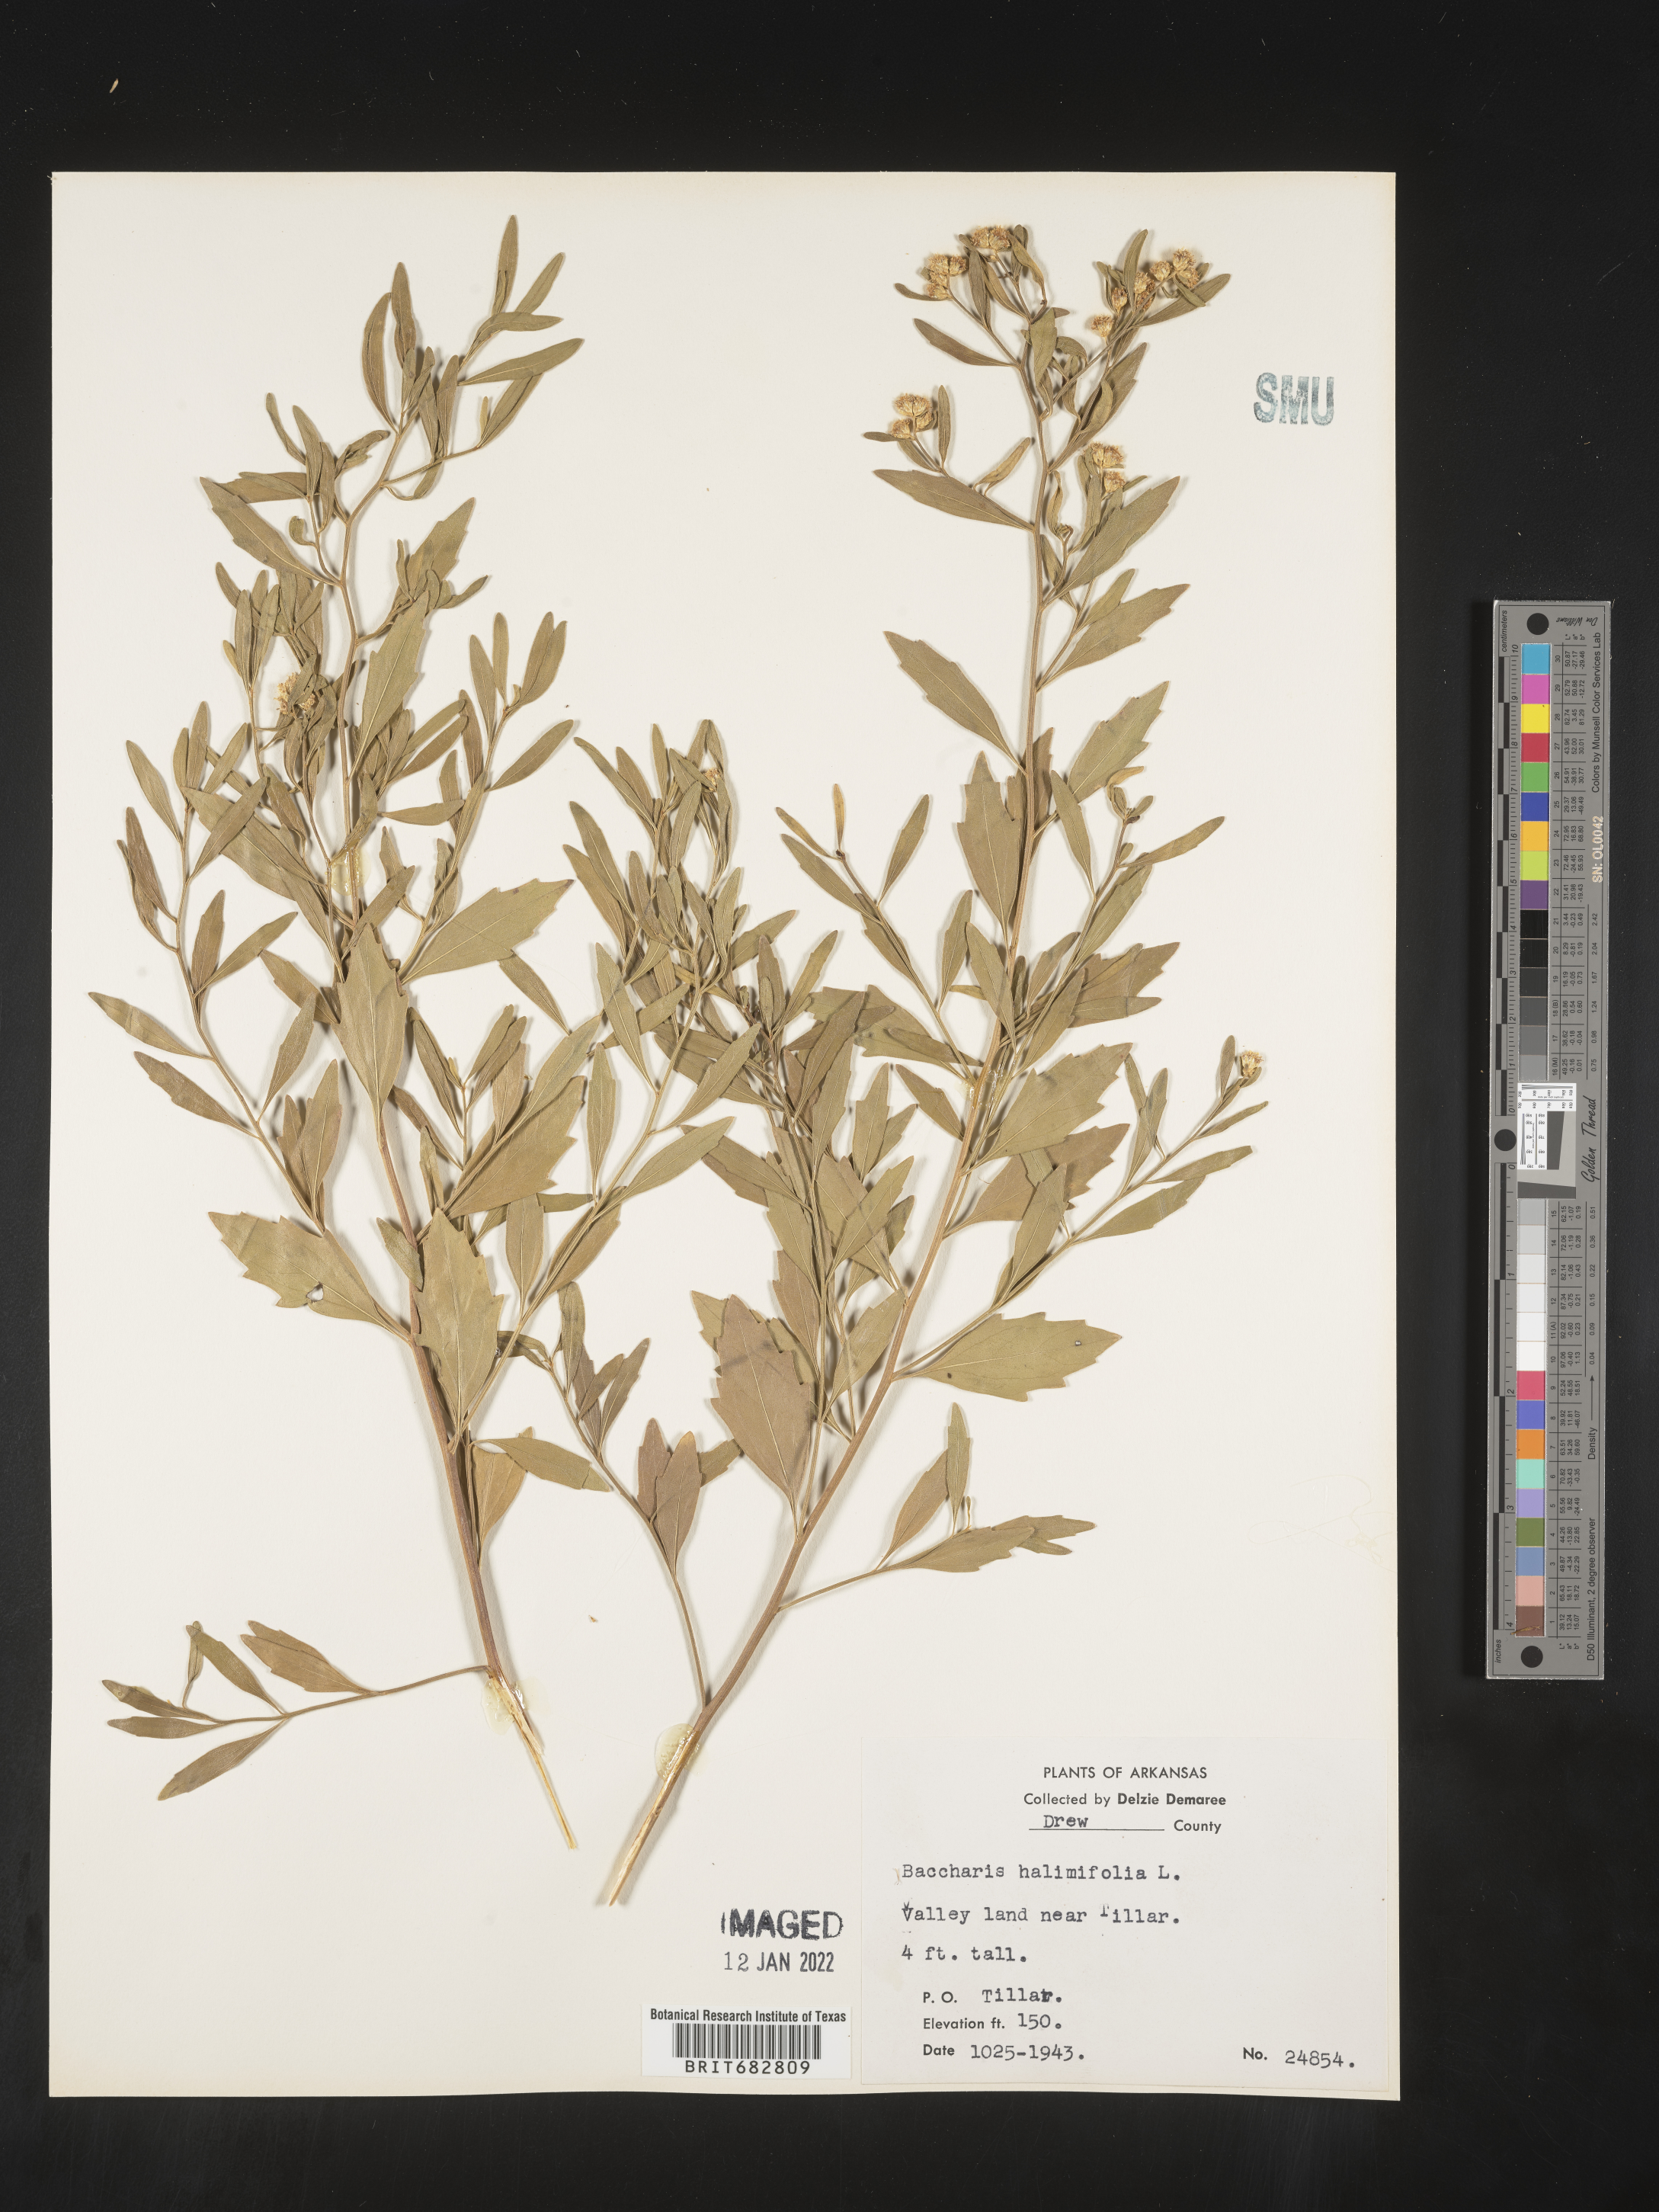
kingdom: Plantae
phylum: Tracheophyta
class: Magnoliopsida
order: Asterales
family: Asteraceae
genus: Nidorella
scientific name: Nidorella ivifolia
